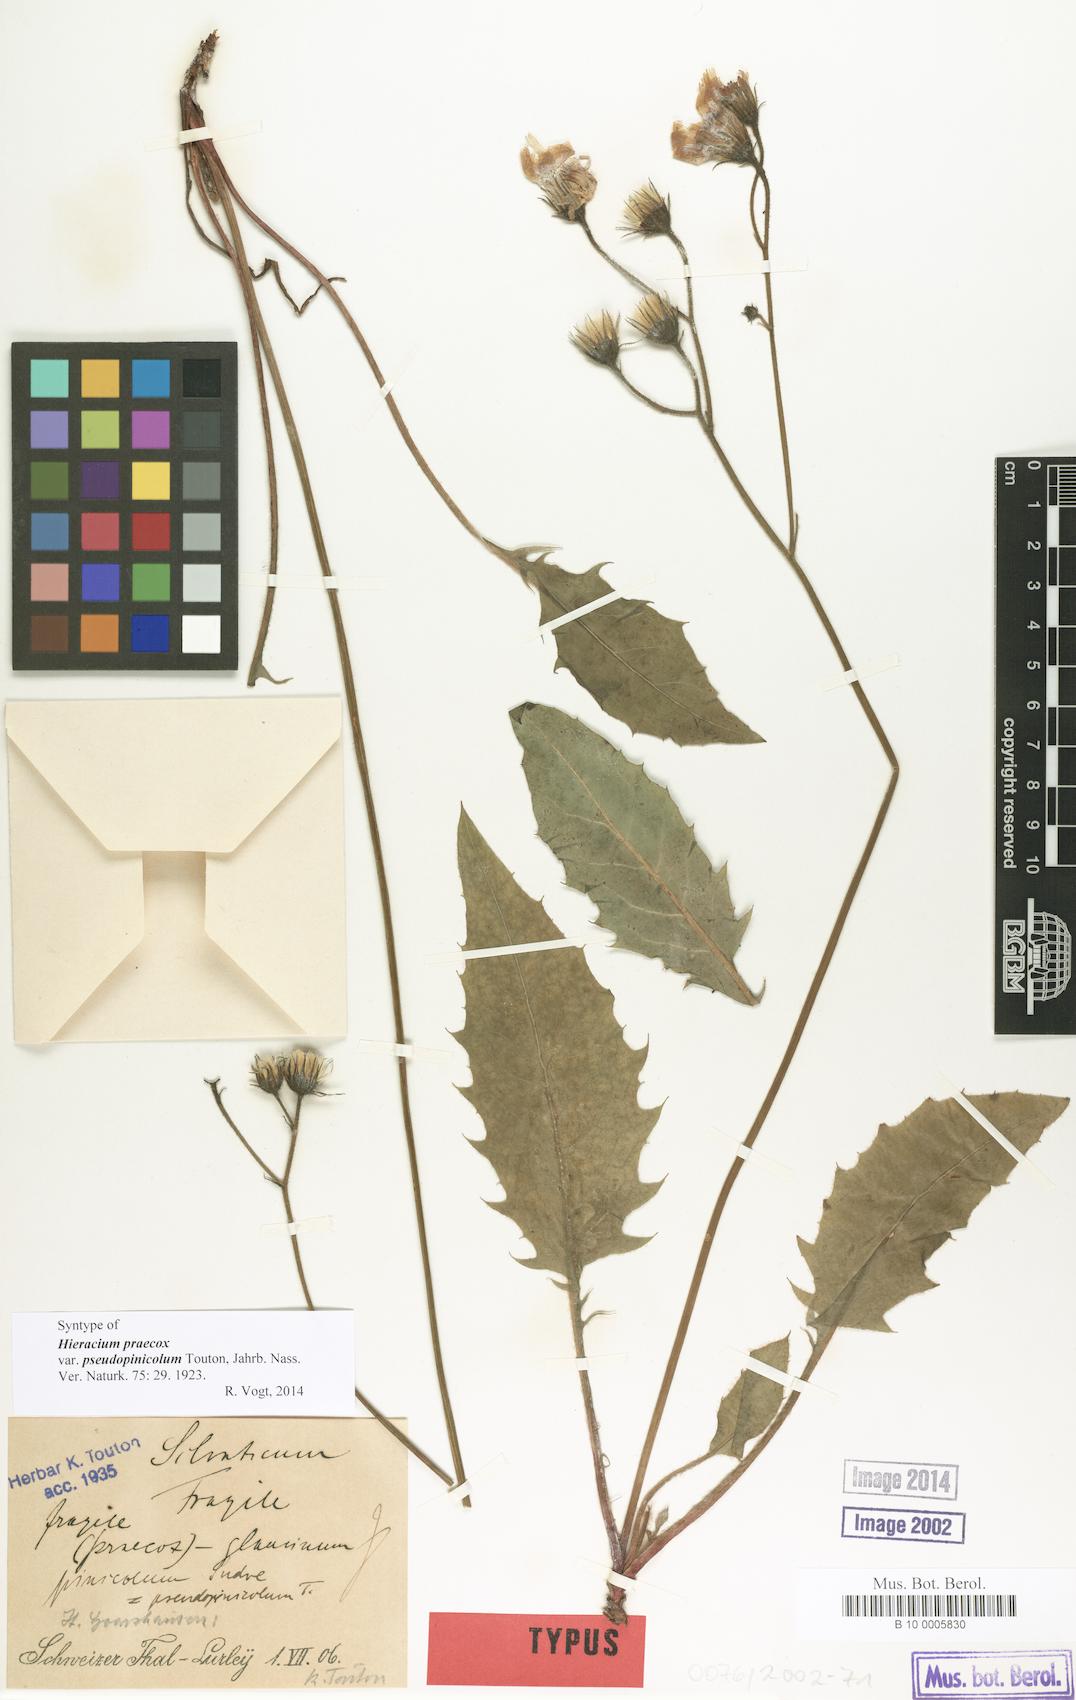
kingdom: Plantae
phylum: Tracheophyta
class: Magnoliopsida
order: Asterales
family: Asteraceae
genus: Hieracium
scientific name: Hieracium praecox
